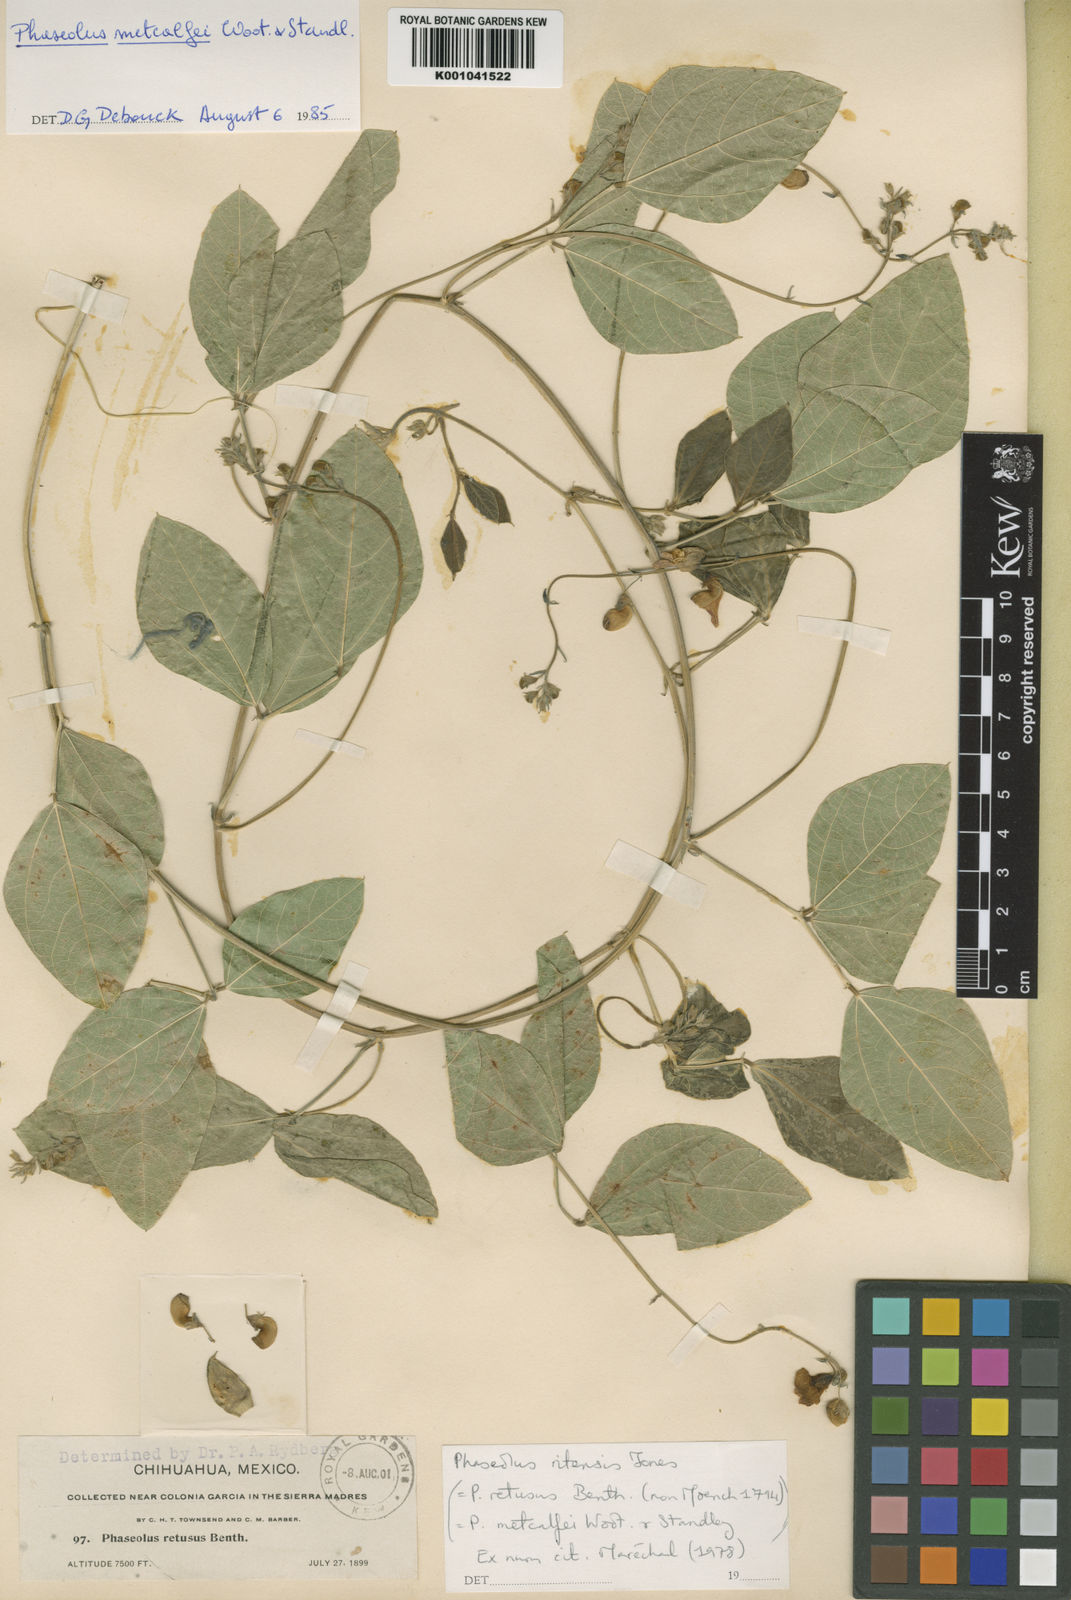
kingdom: Plantae
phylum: Tracheophyta
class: Magnoliopsida
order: Fabales
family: Fabaceae
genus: Phaseolus
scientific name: Phaseolus maculatus
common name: Metcalfe bean
